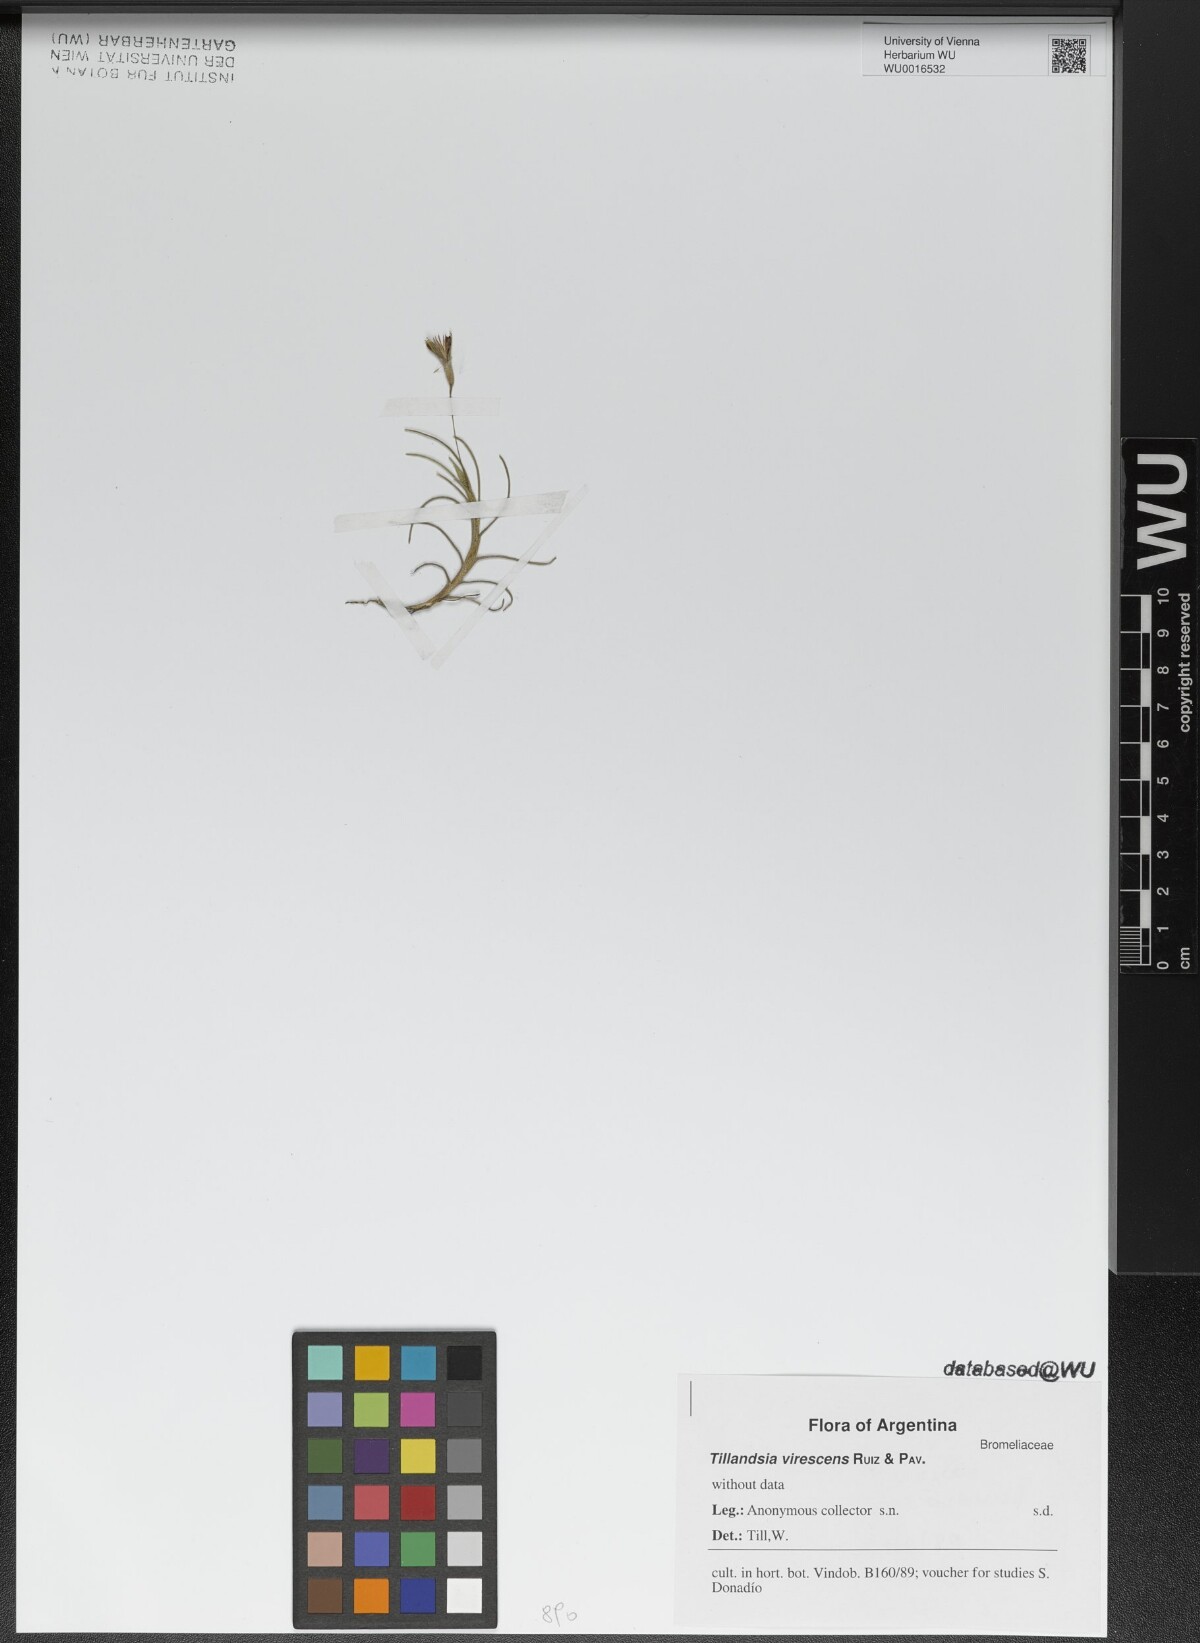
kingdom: Plantae
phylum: Tracheophyta
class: Liliopsida
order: Poales
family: Bromeliaceae
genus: Tillandsia
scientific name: Tillandsia virescens
